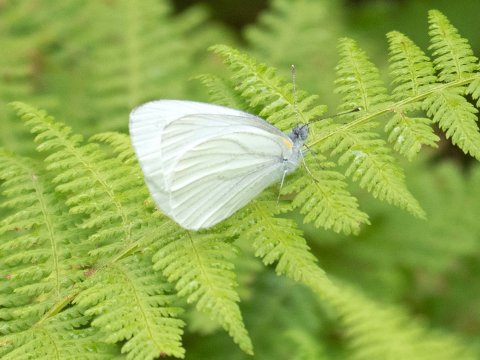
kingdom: Animalia
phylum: Arthropoda
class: Insecta
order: Lepidoptera
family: Pieridae
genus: Pieris
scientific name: Pieris oleracea
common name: Mustard White
